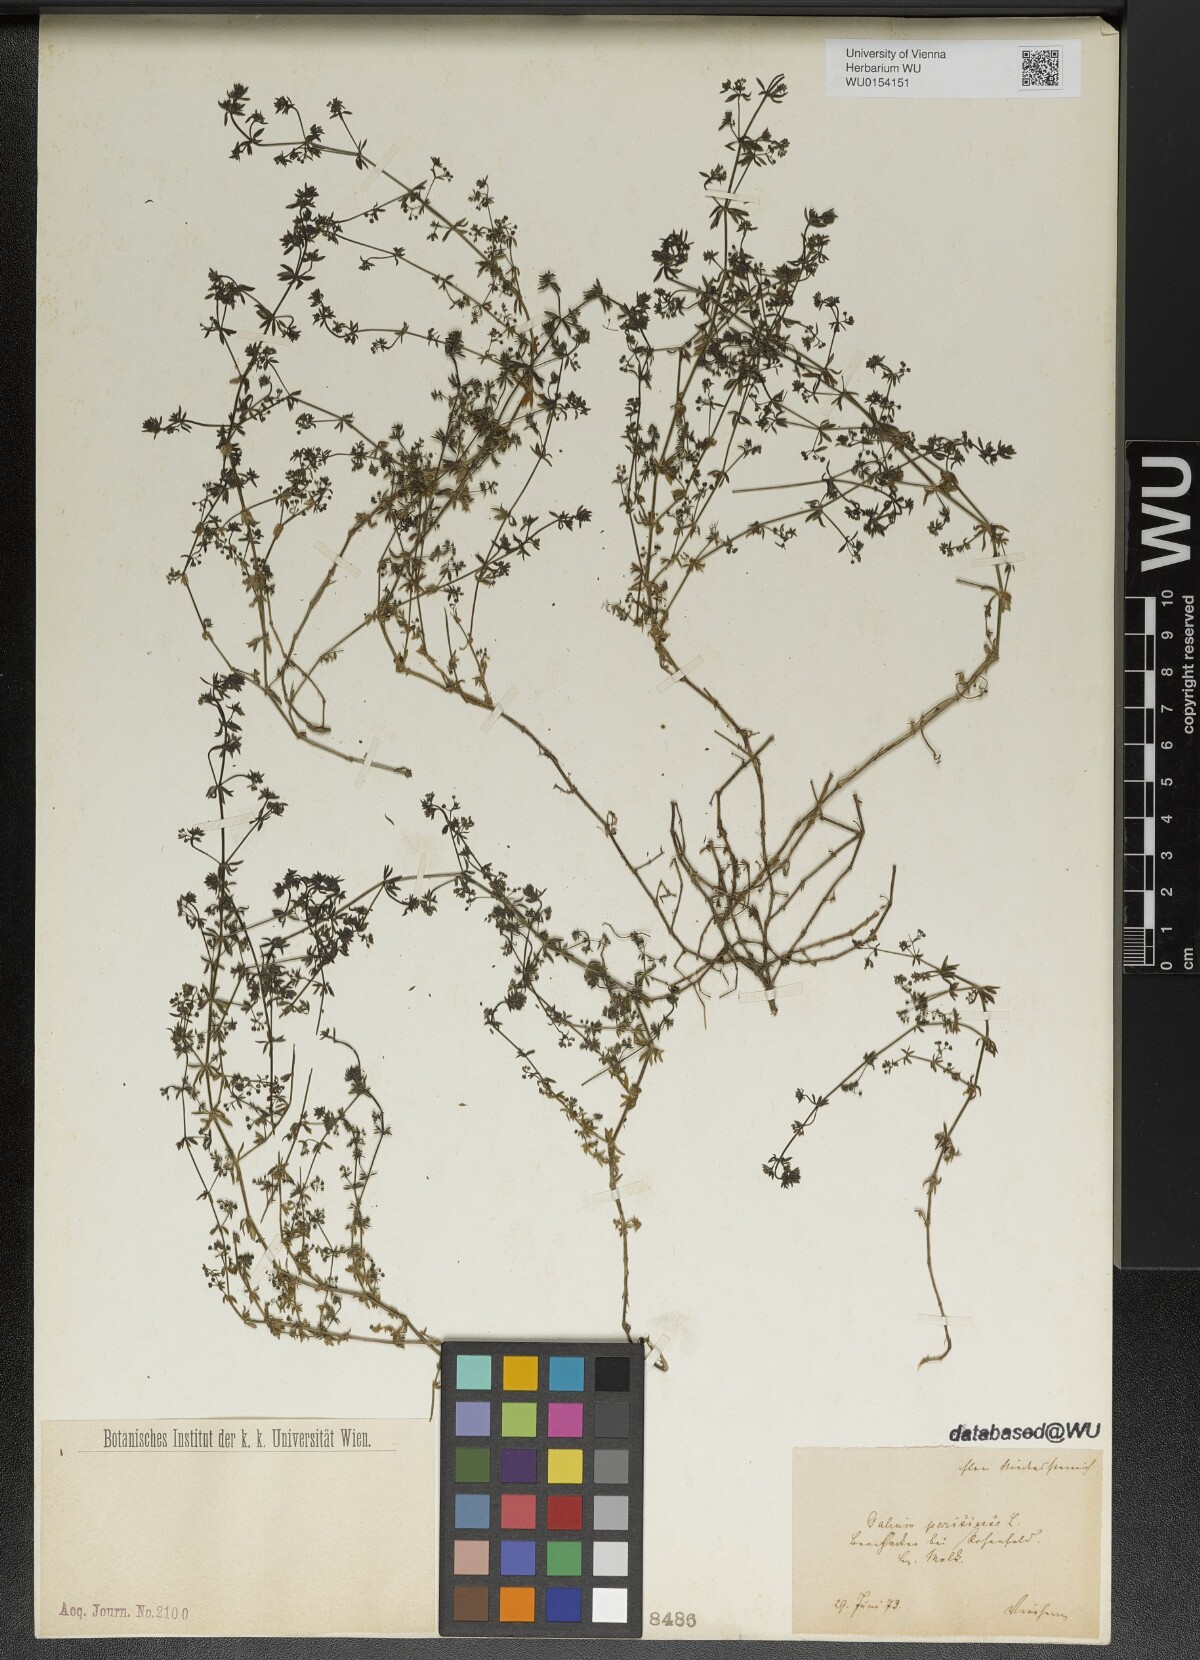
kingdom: Plantae
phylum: Tracheophyta
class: Magnoliopsida
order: Gentianales
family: Rubiaceae
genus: Galium
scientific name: Galium parisiense
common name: Wall bedstraw
